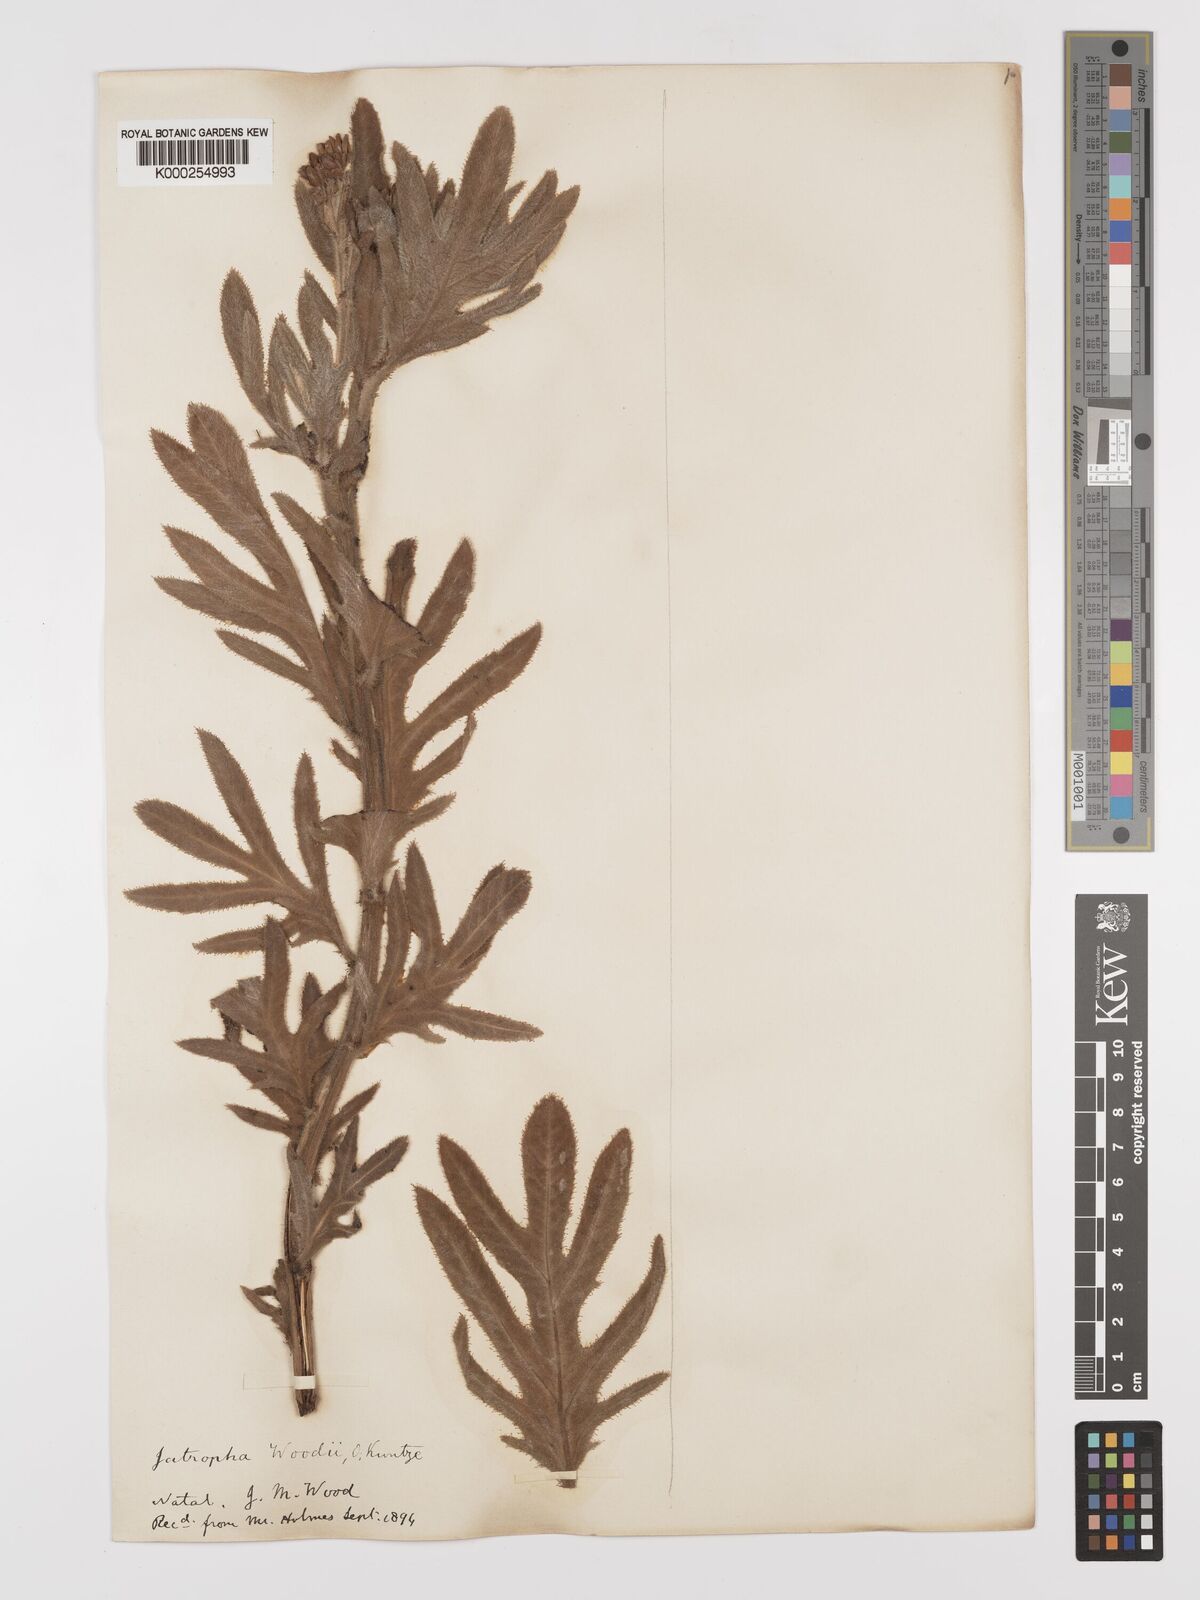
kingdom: Plantae
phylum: Tracheophyta
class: Magnoliopsida
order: Malpighiales
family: Euphorbiaceae
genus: Jatropha
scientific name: Jatropha woodii
